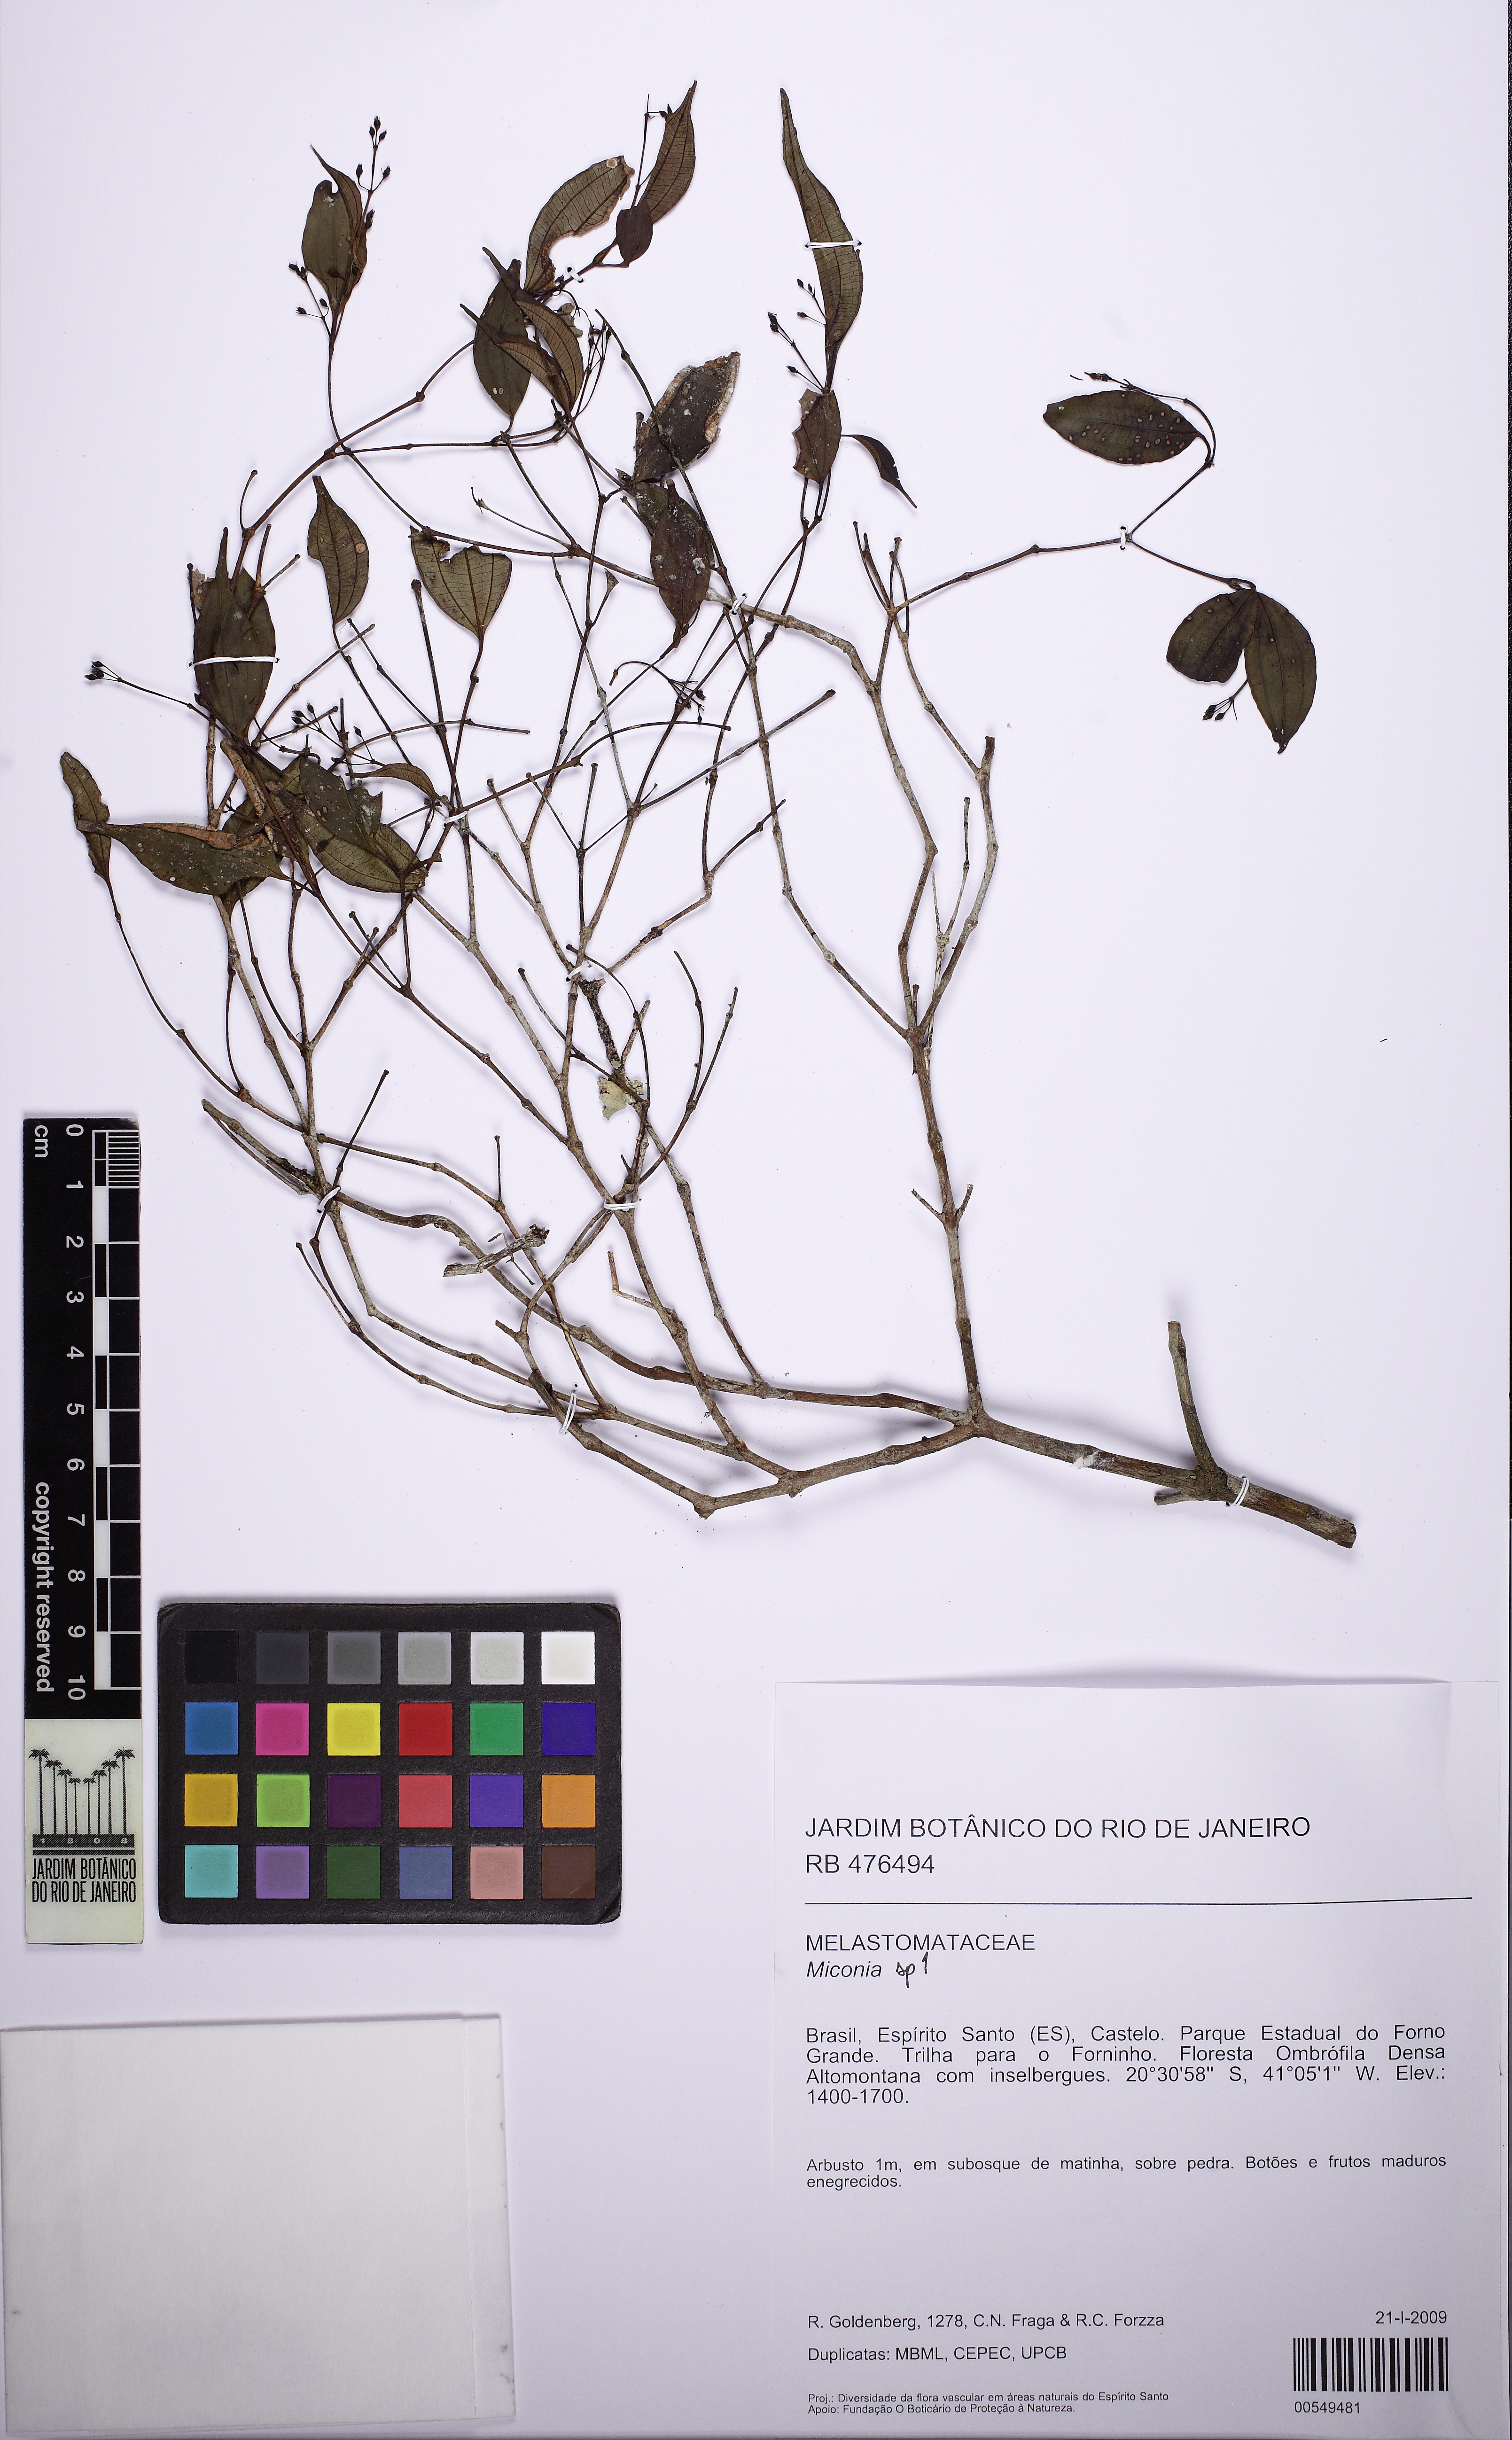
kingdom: Plantae
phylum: Tracheophyta
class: Magnoliopsida
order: Myrtales
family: Melastomataceae
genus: Miconia
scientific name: Miconia
